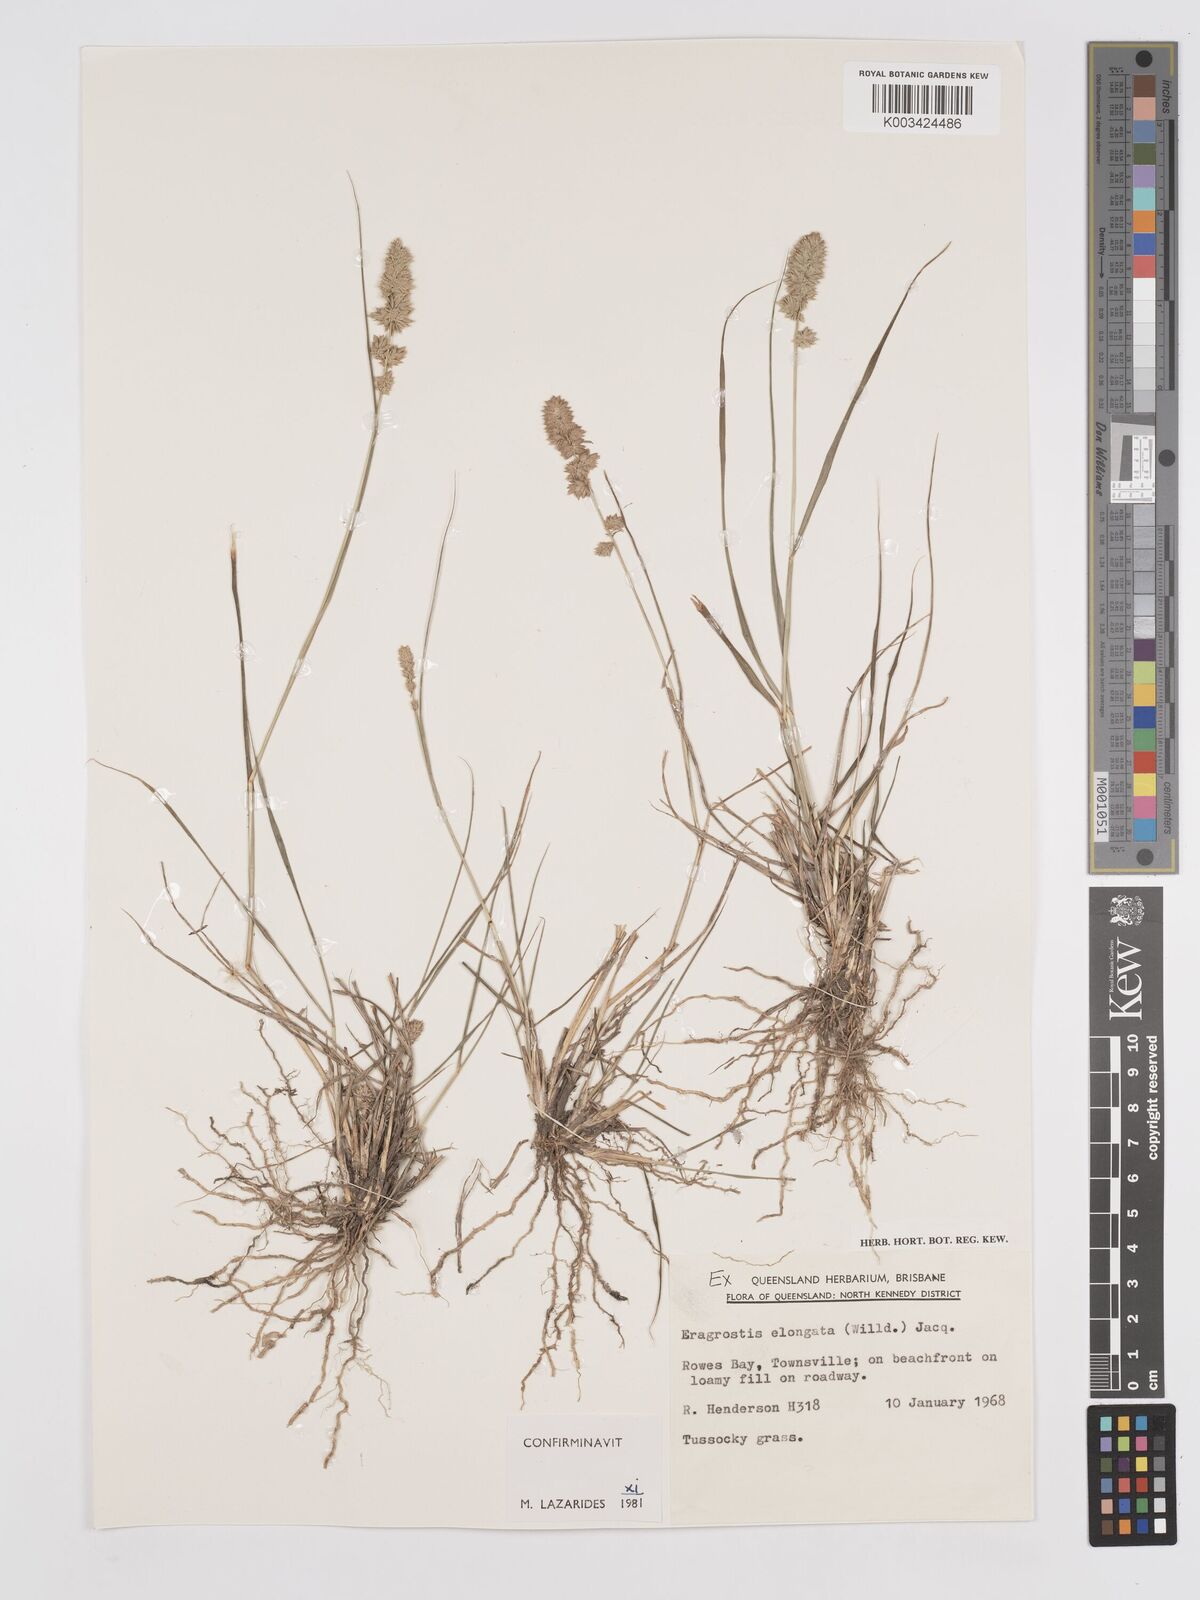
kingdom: Plantae
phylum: Tracheophyta
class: Liliopsida
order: Poales
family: Poaceae
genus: Eragrostis
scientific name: Eragrostis elongata
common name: Long lovegrass
